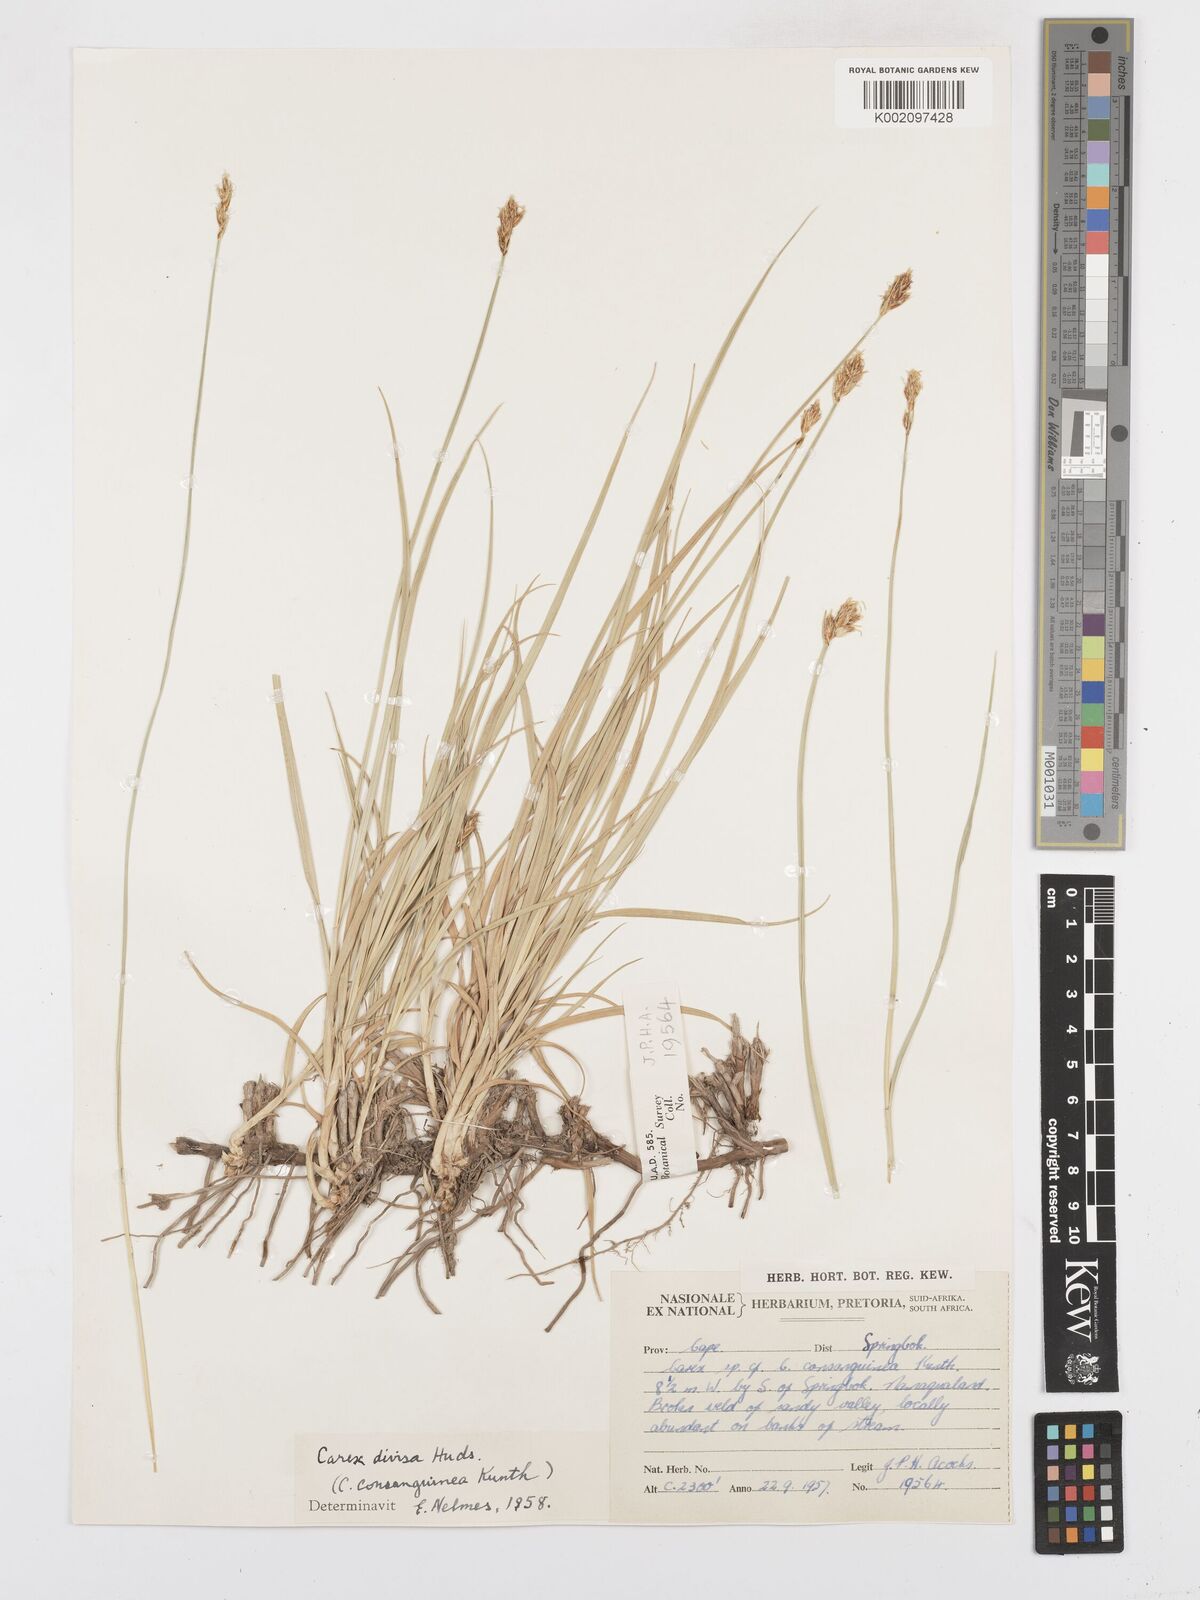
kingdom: Plantae
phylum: Tracheophyta
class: Liliopsida
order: Poales
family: Cyperaceae
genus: Carex
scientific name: Carex divisa
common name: Divided sedge
